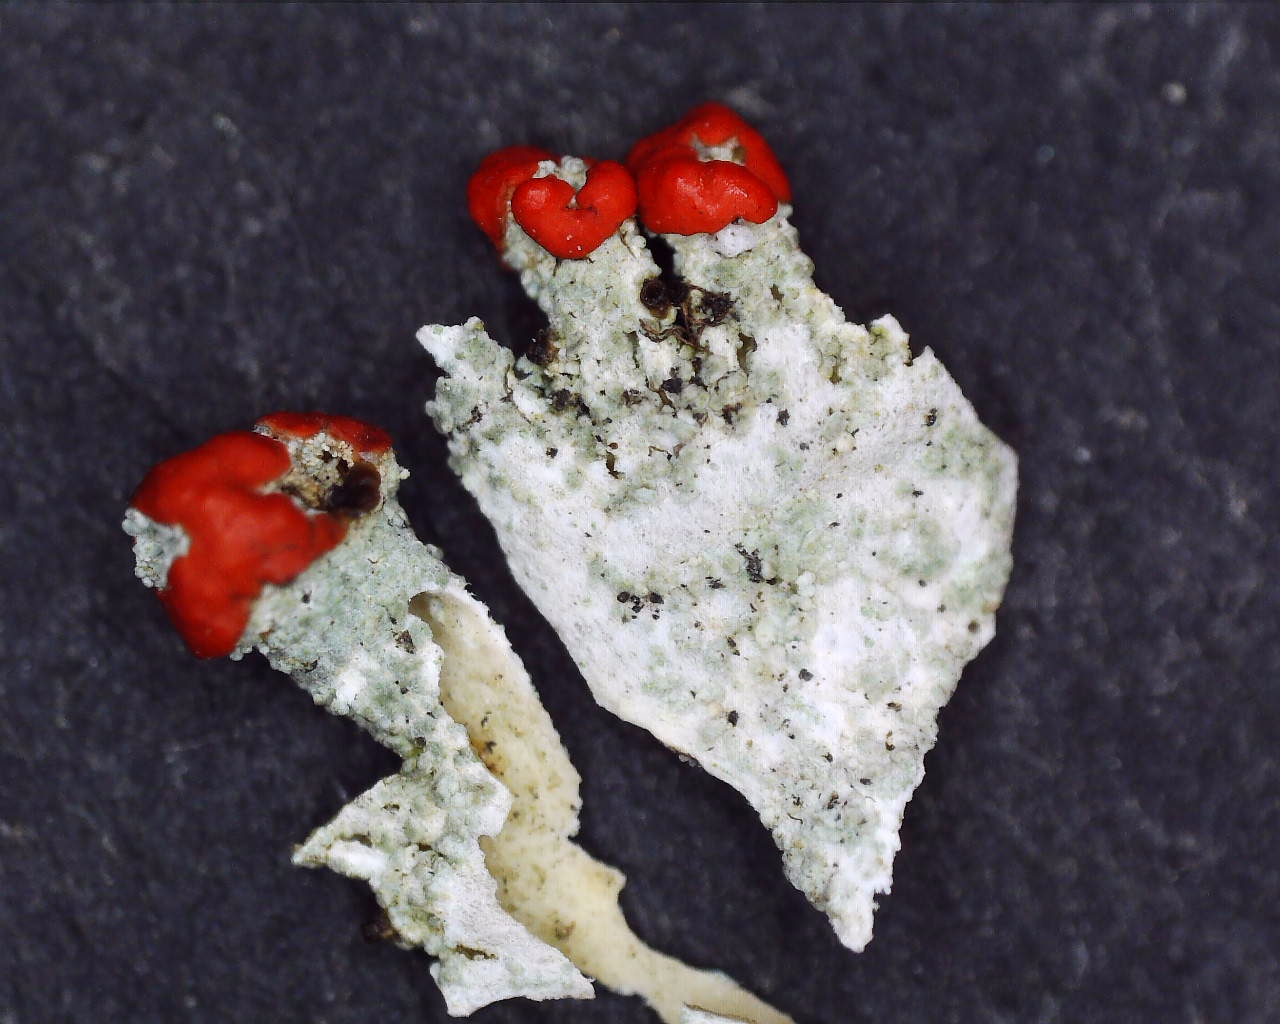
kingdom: Fungi
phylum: Ascomycota
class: Lecanoromycetes
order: Lecanorales
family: Cladoniaceae
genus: Cladonia
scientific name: Cladonia diversa
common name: rød bægerlav
